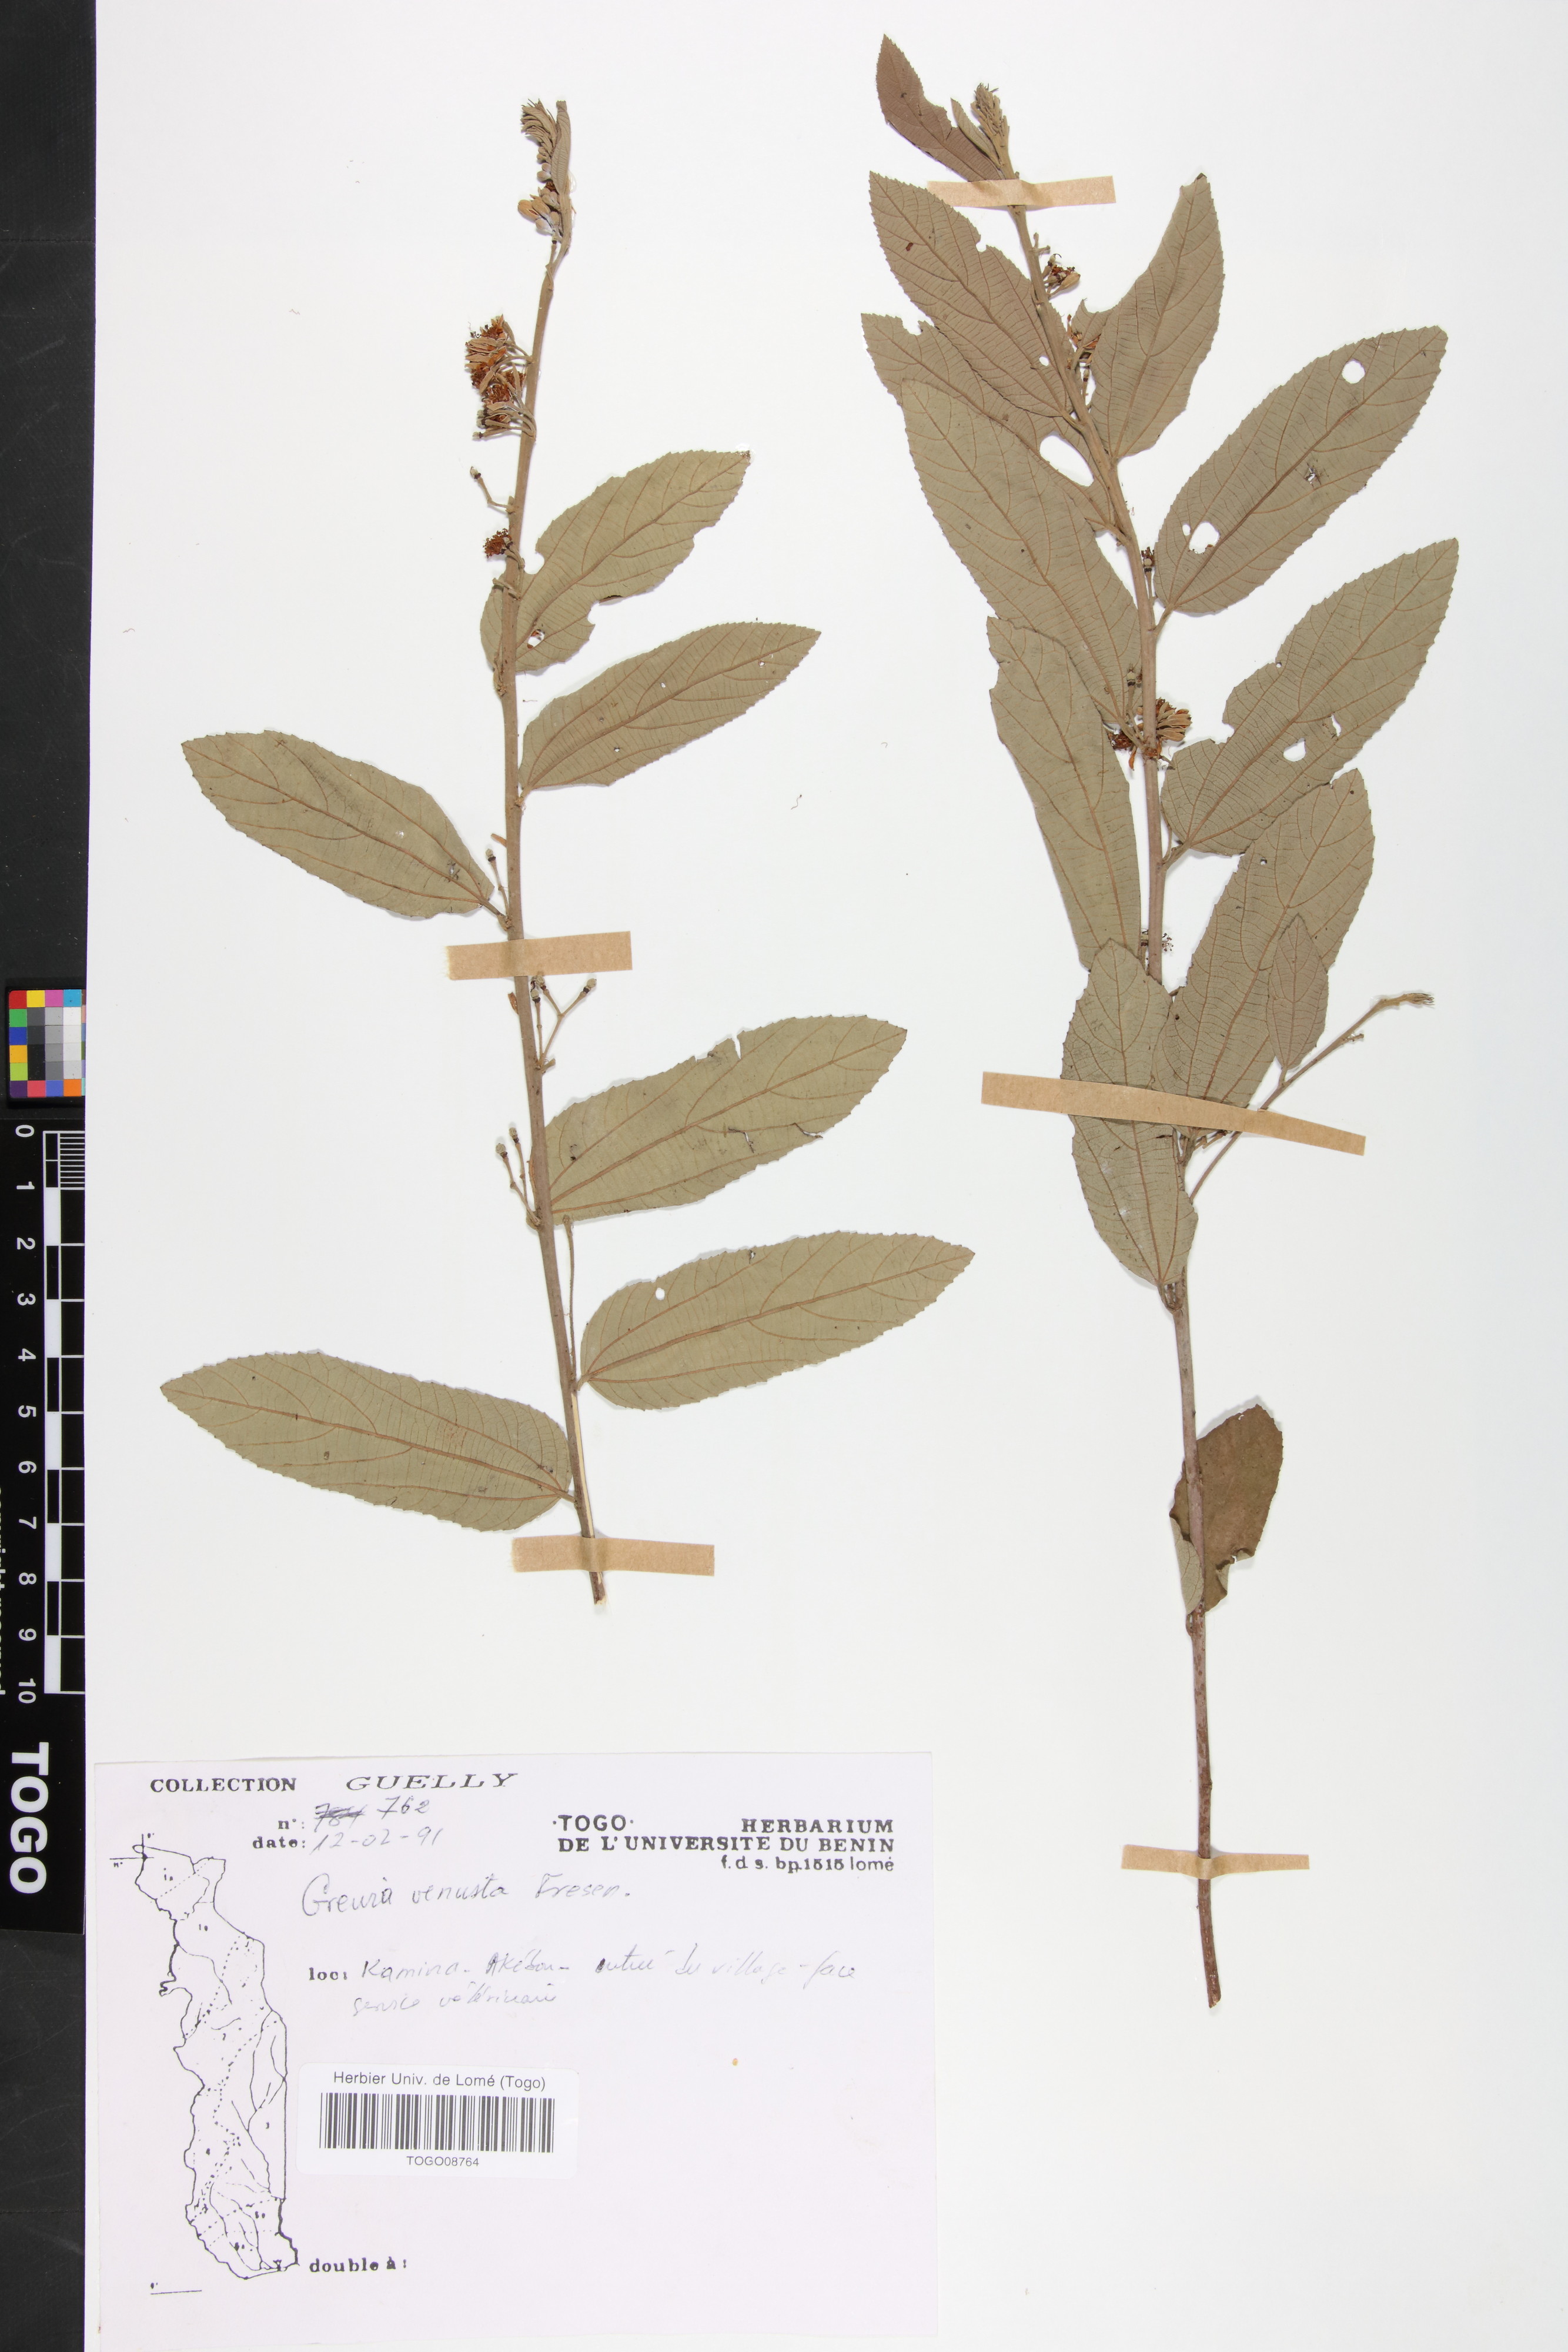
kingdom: Plantae
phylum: Tracheophyta
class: Magnoliopsida
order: Malvales
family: Malvaceae
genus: Grewia
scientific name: Grewia mollis
